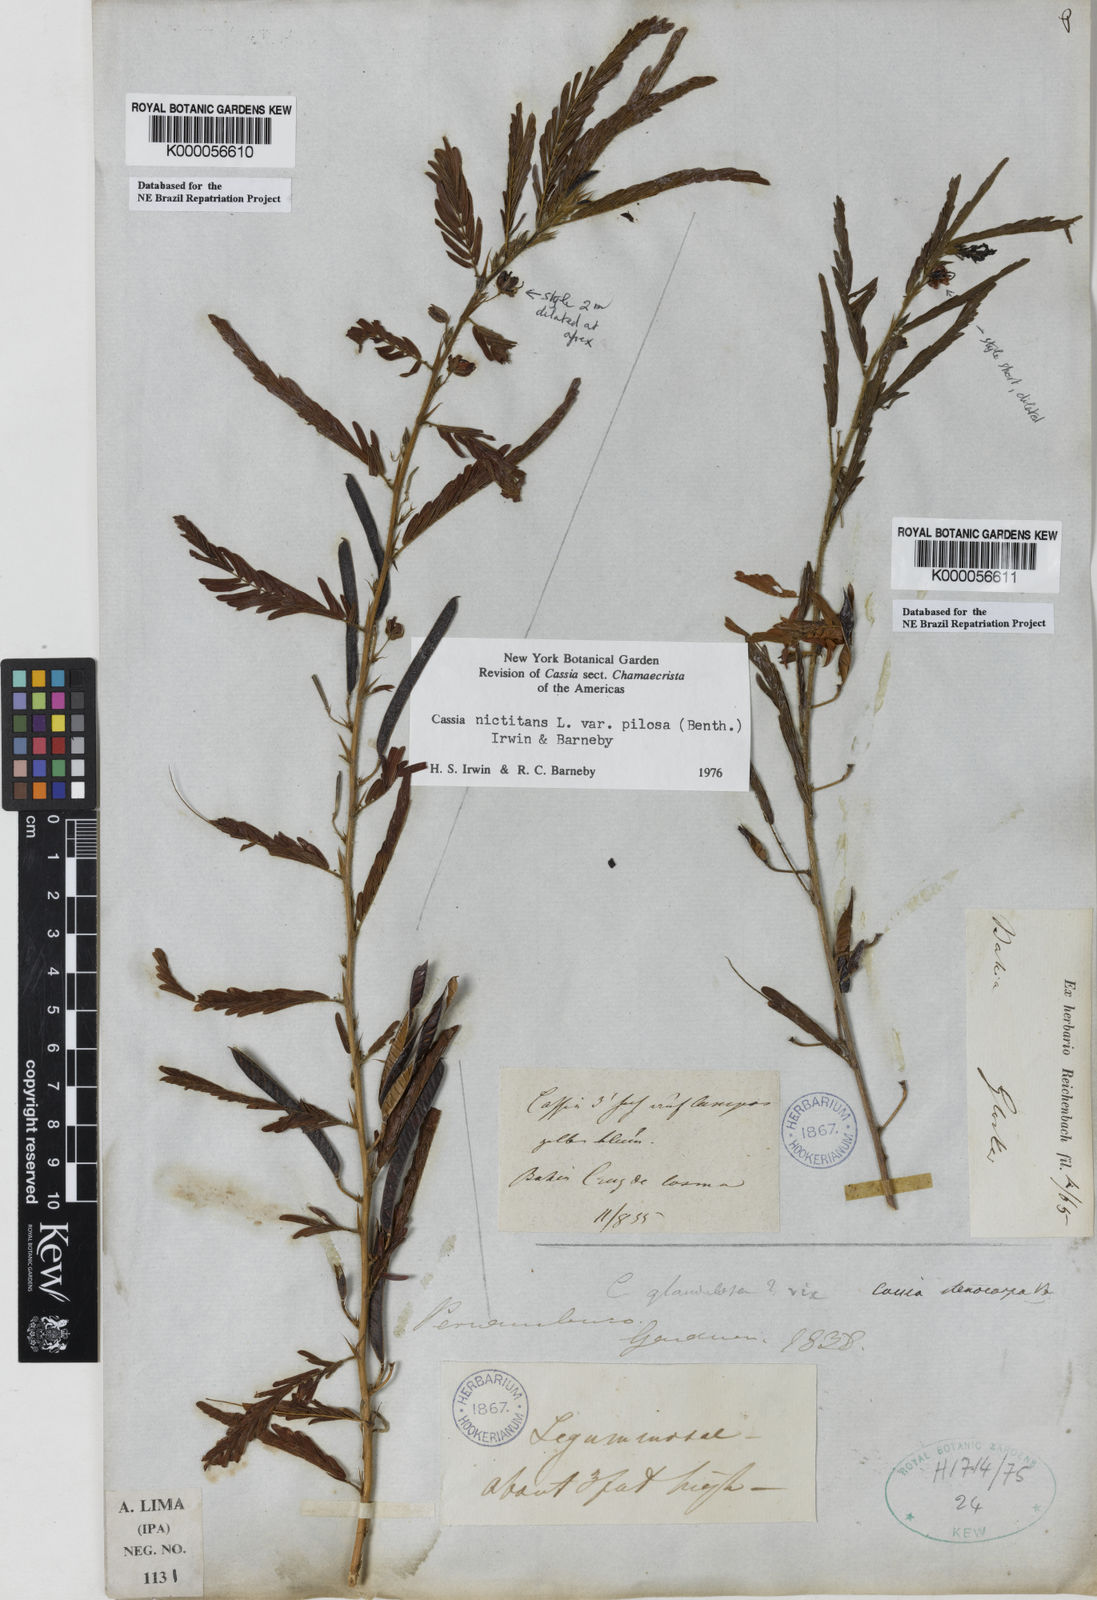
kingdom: Plantae
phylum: Tracheophyta
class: Magnoliopsida
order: Fabales
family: Fabaceae
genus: Chamaecrista
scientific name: Chamaecrista nictitans
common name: Sensitive cassia
